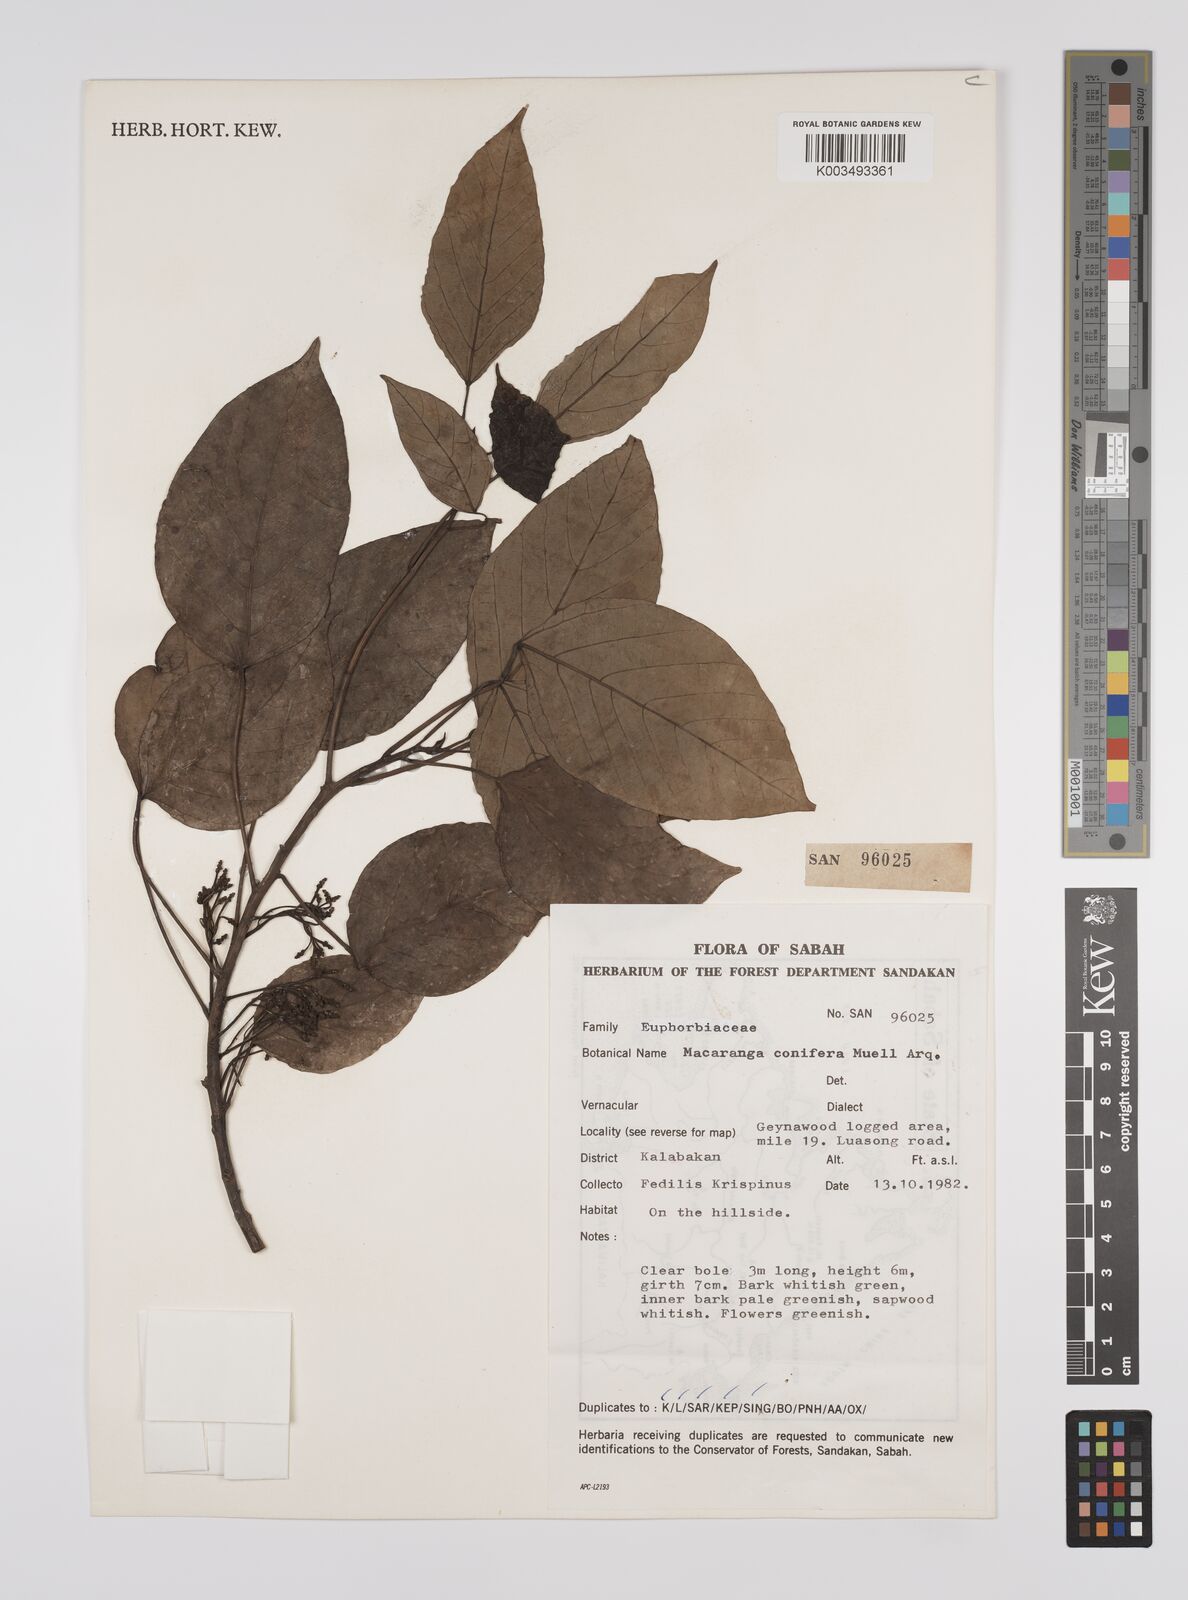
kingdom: Plantae
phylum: Tracheophyta
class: Magnoliopsida
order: Malpighiales
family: Euphorbiaceae
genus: Macaranga
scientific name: Macaranga conifera
